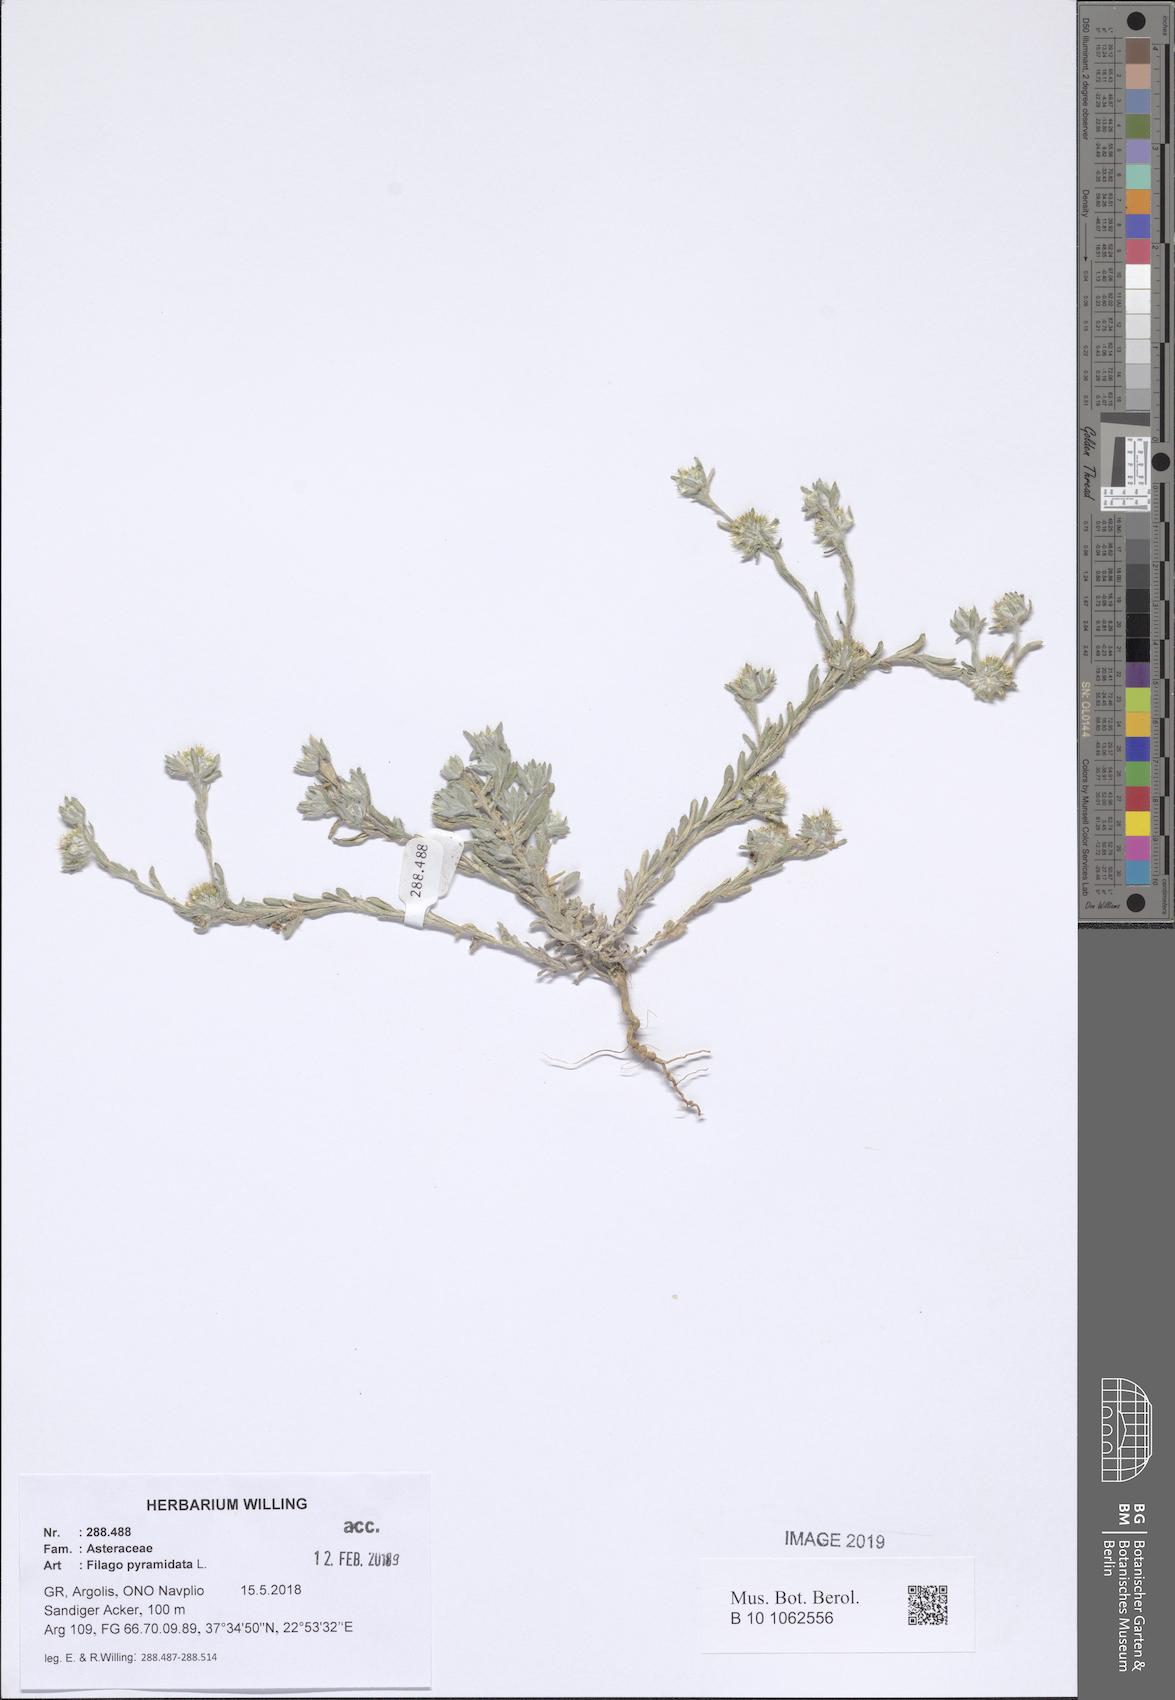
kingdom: Plantae
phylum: Tracheophyta
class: Magnoliopsida
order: Asterales
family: Asteraceae
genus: Filago
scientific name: Filago pyramidata
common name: Broad-leaved cudweed
